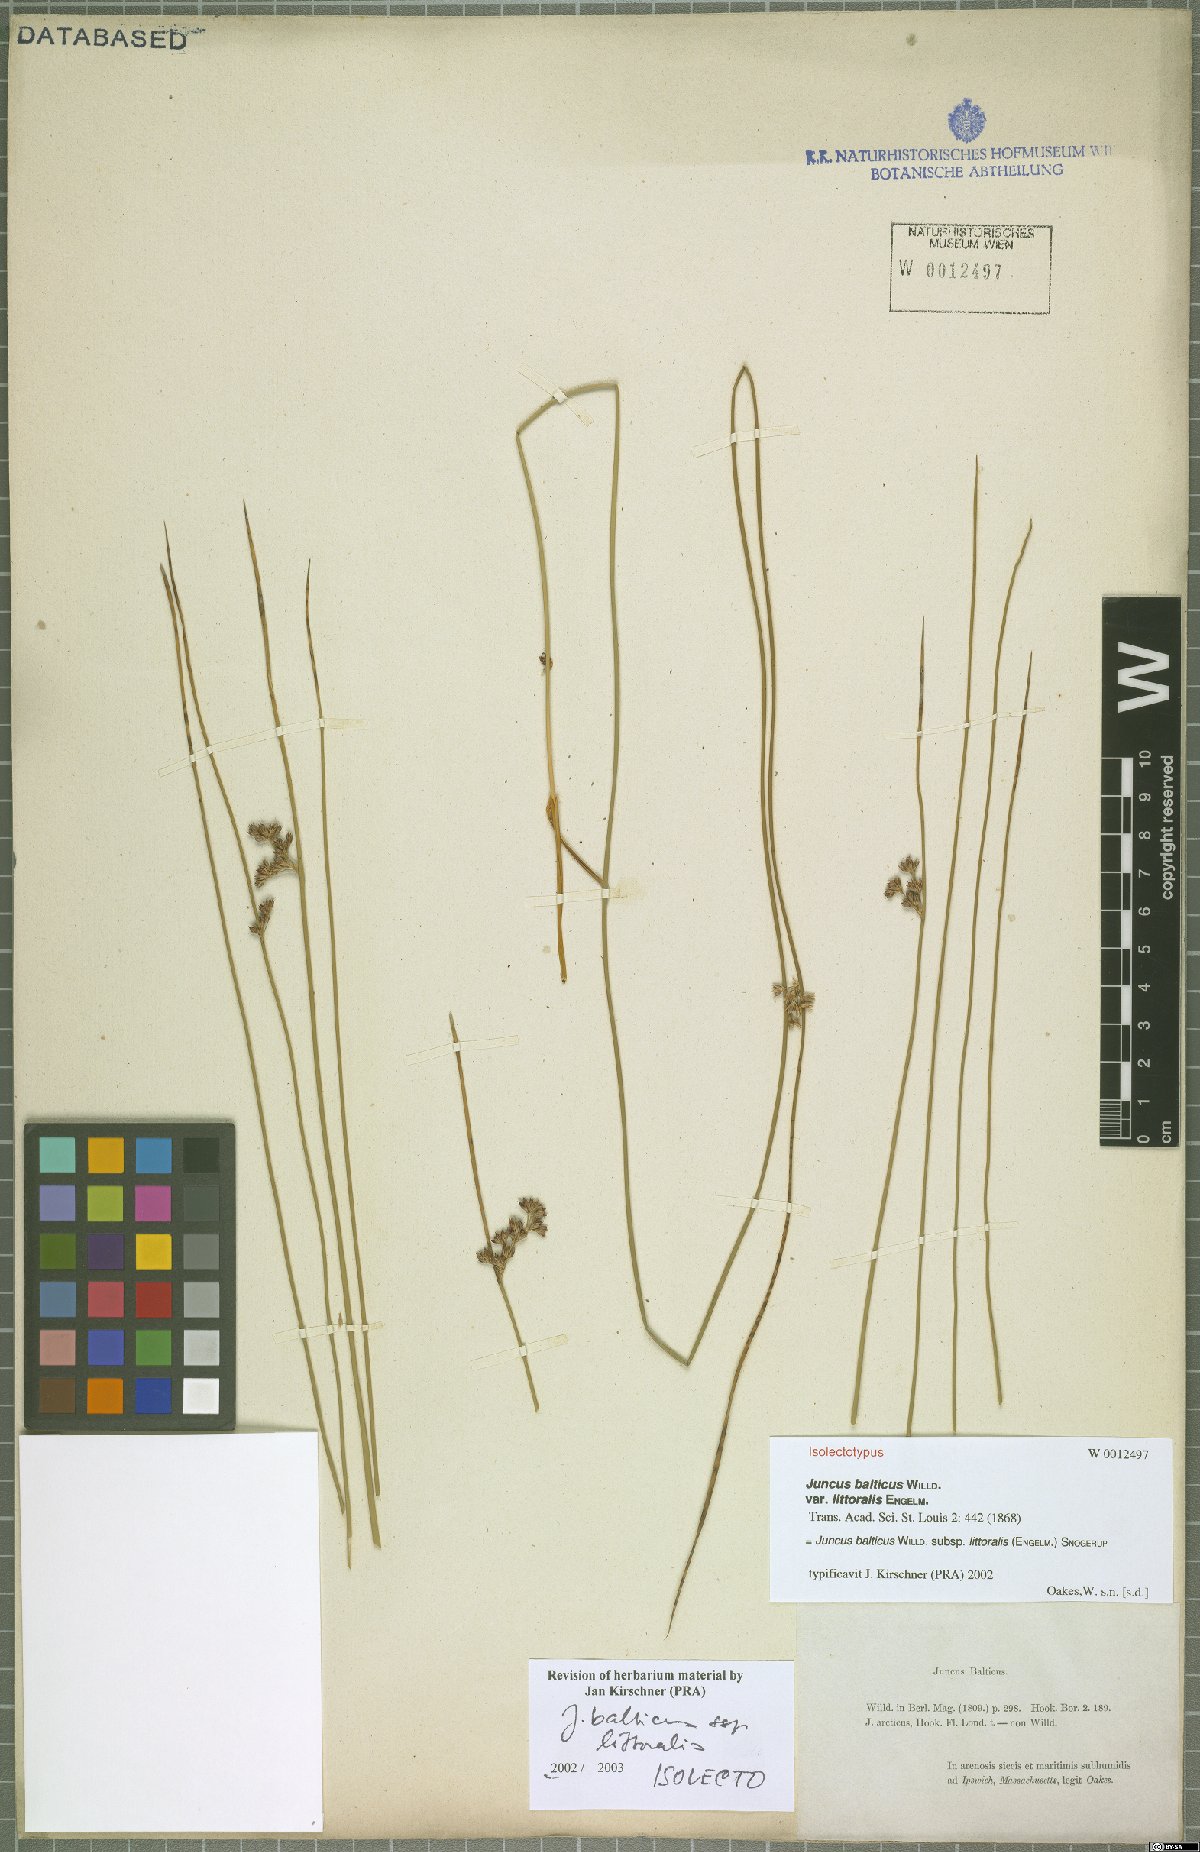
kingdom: Plantae
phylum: Tracheophyta
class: Liliopsida
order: Poales
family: Juncaceae
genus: Juncus
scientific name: Juncus balticus
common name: Baltic rush
